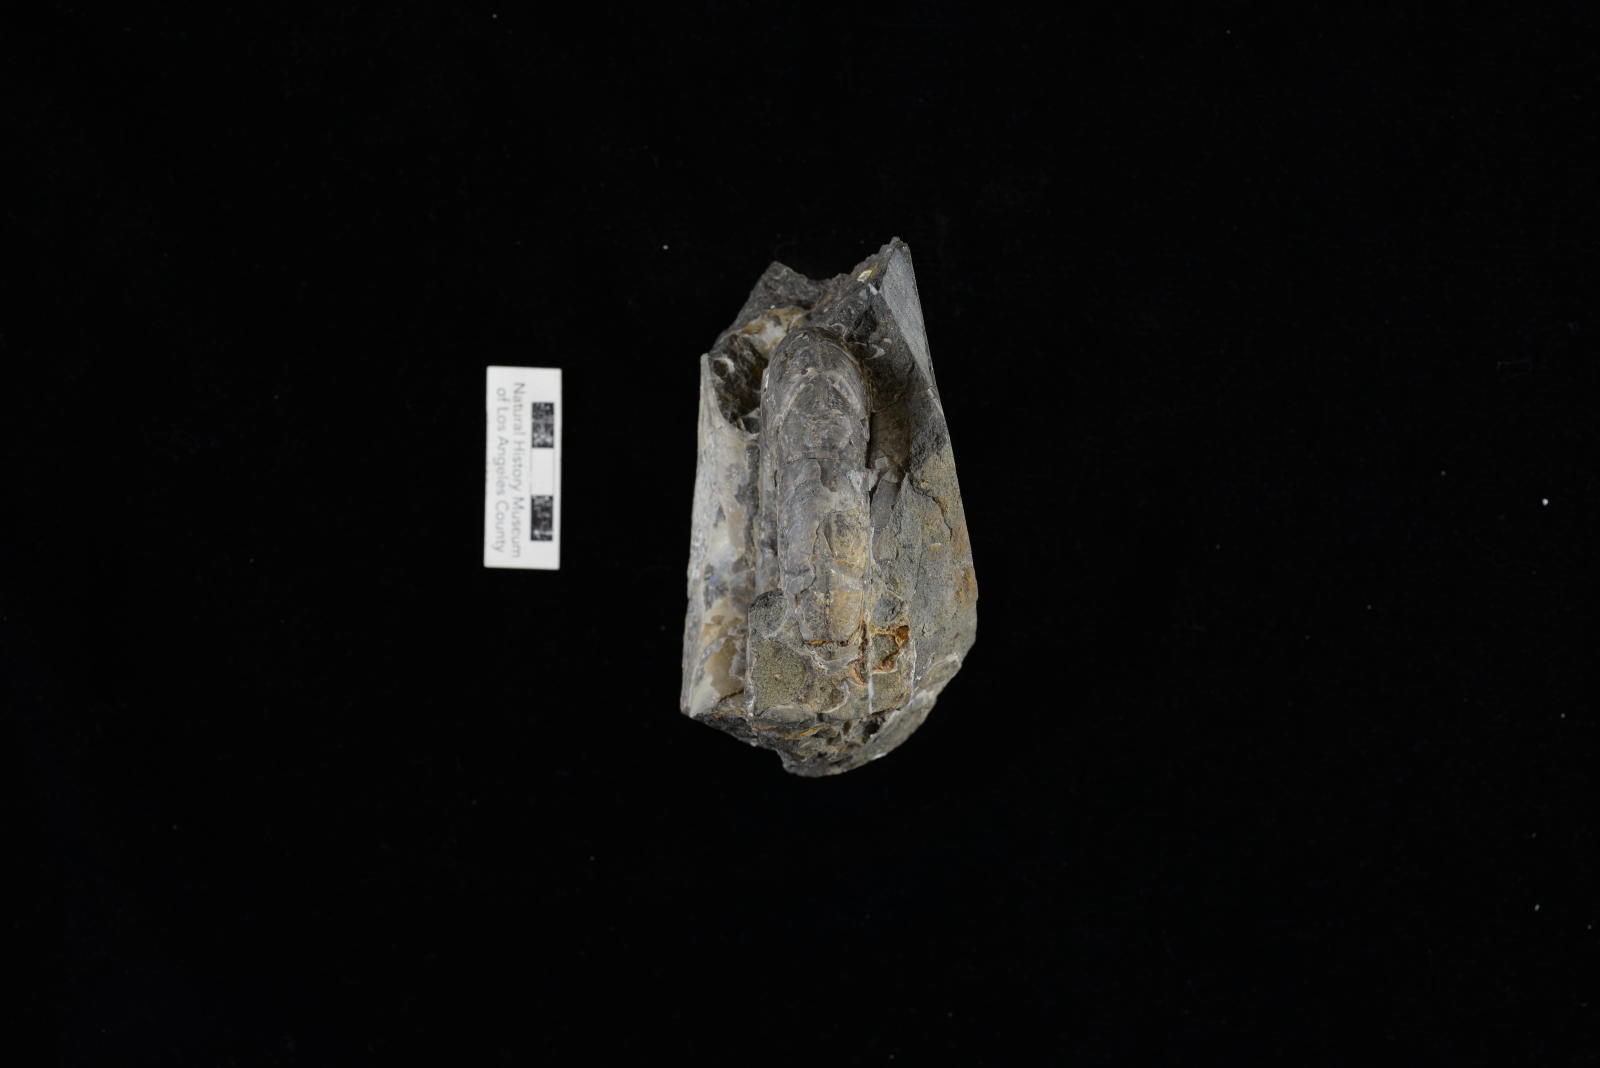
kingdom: Animalia
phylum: Mollusca
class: Cephalopoda
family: Desmoceratidae
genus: Puzosia
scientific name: Puzosia puma
